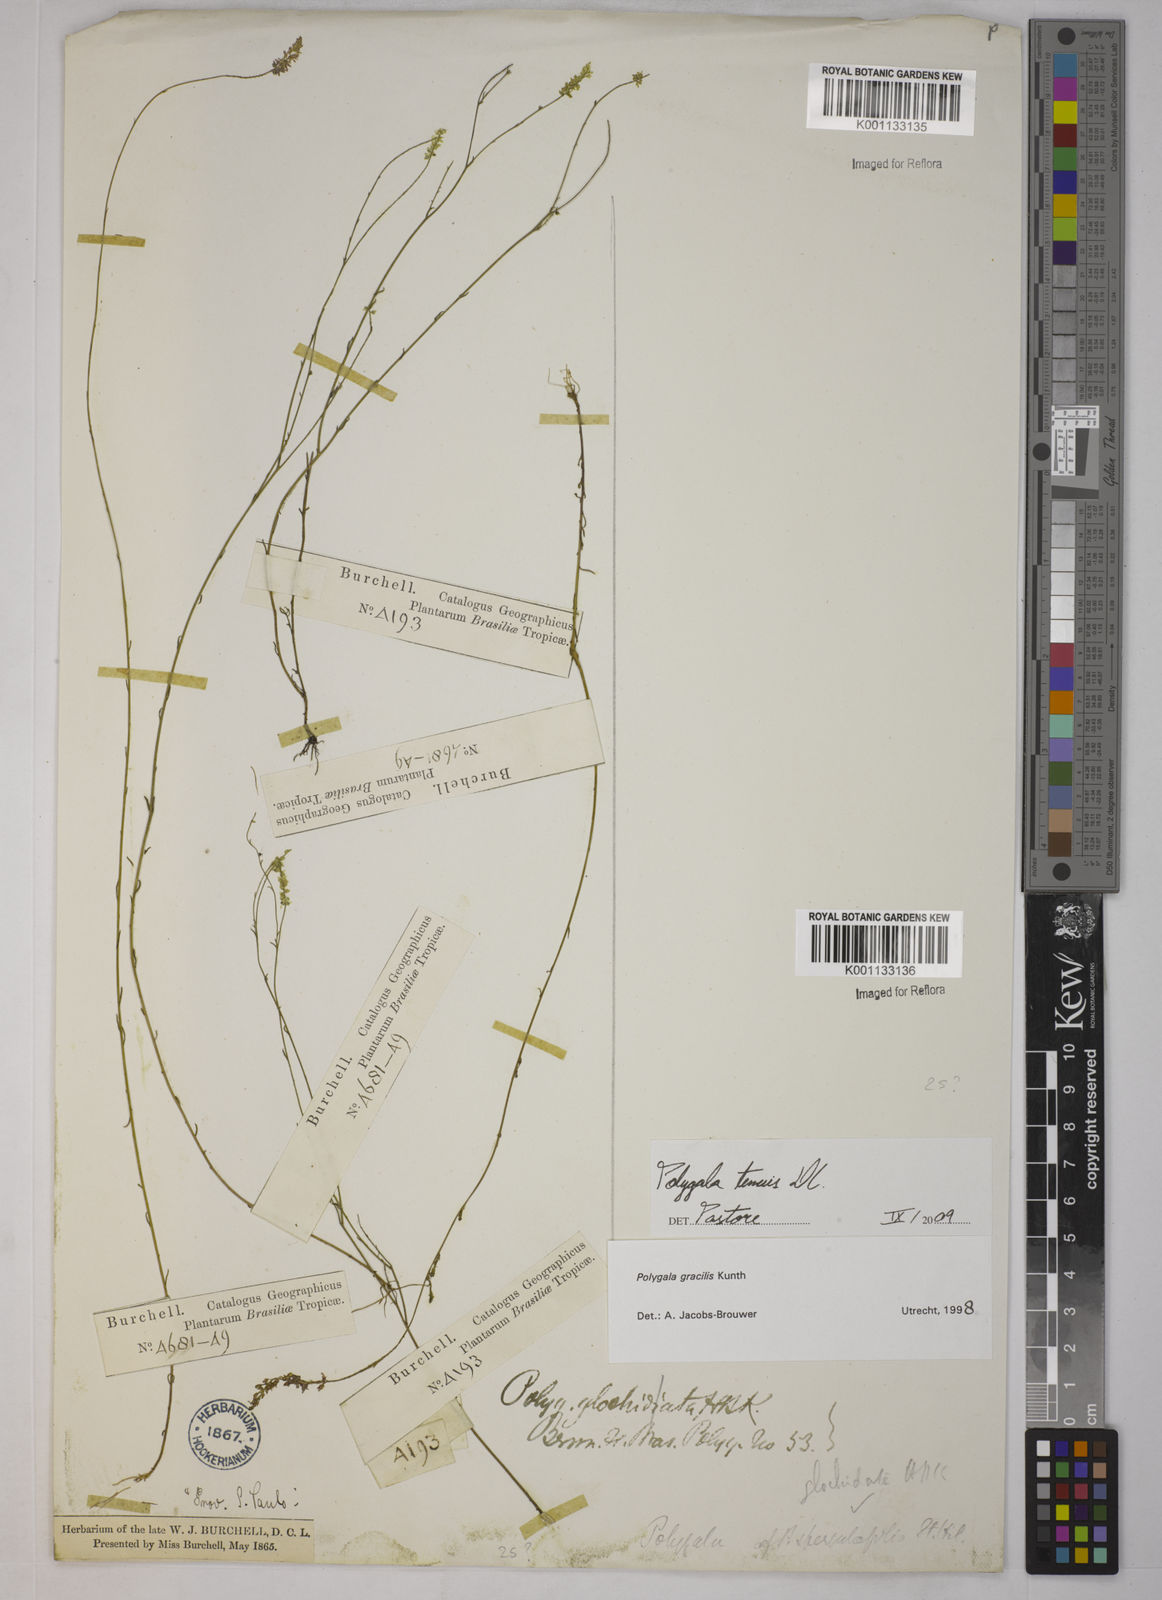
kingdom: Plantae
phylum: Tracheophyta
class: Magnoliopsida
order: Fabales
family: Polygalaceae
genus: Polygala
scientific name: Polygala tenuis
